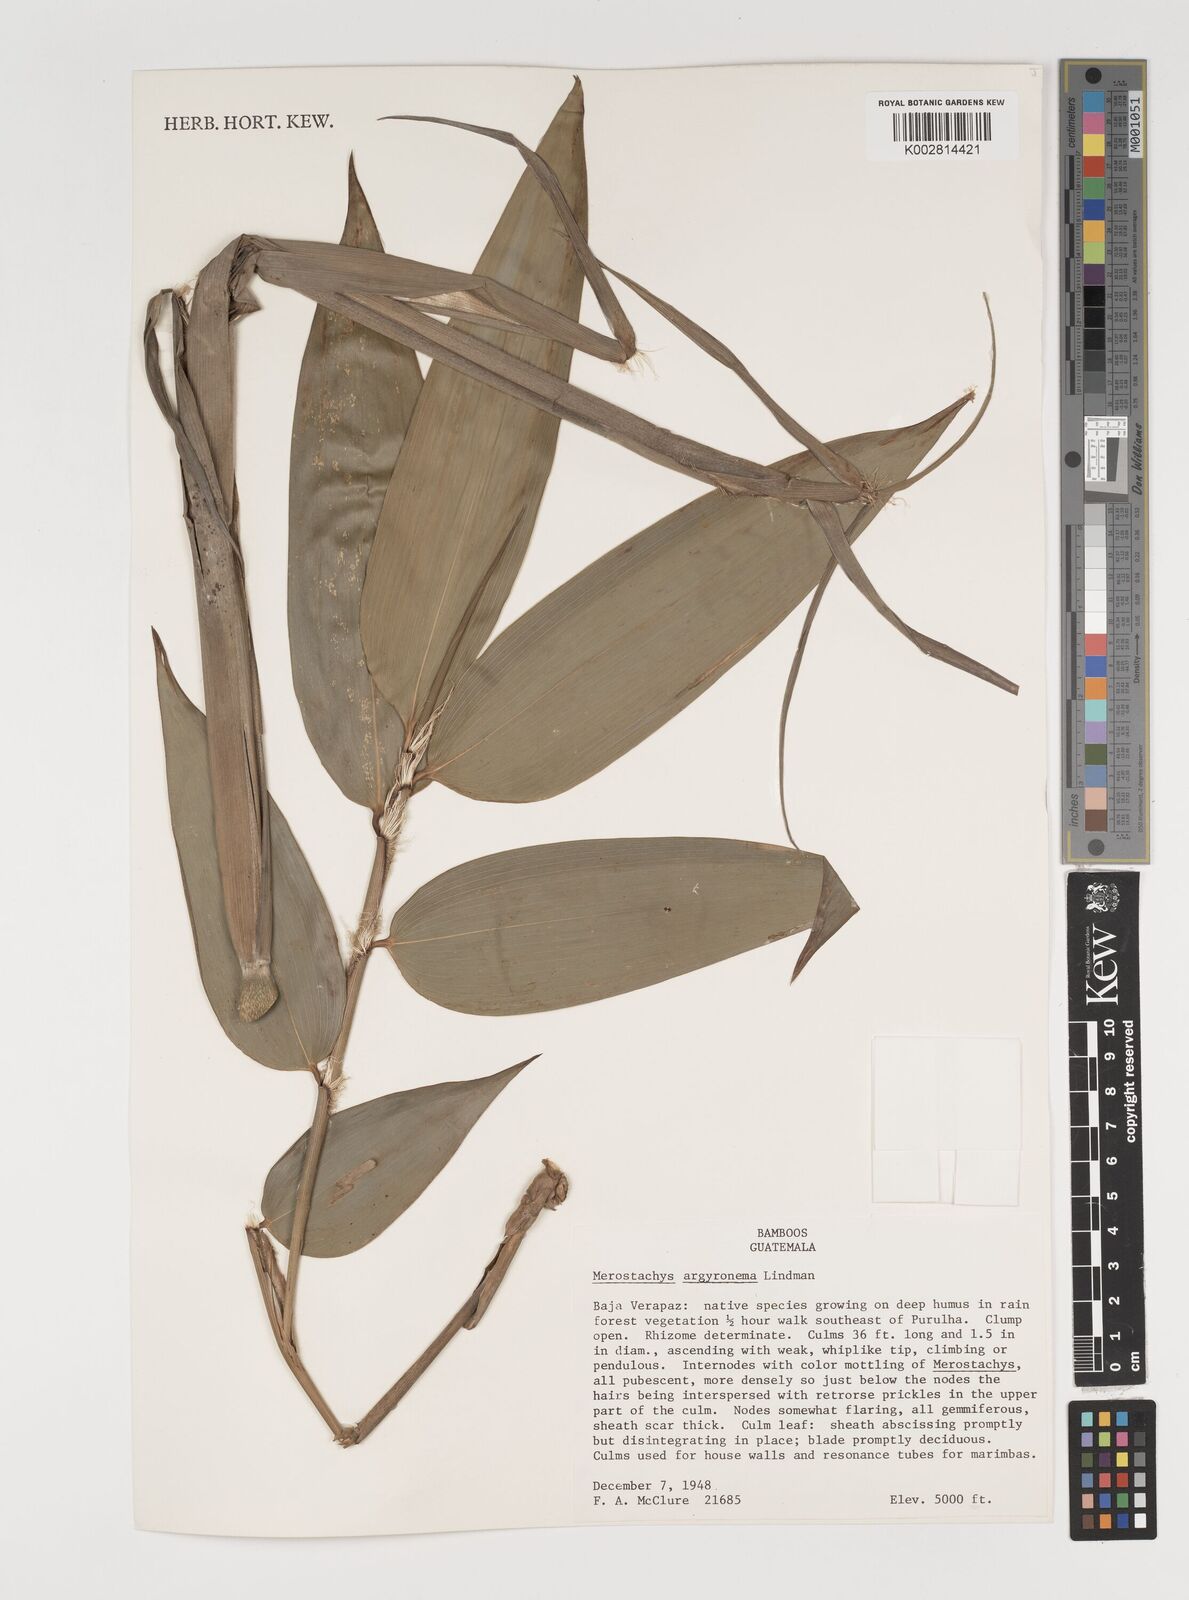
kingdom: Plantae
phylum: Tracheophyta
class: Liliopsida
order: Poales
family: Poaceae
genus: Merostachys
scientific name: Merostachys argyronema
